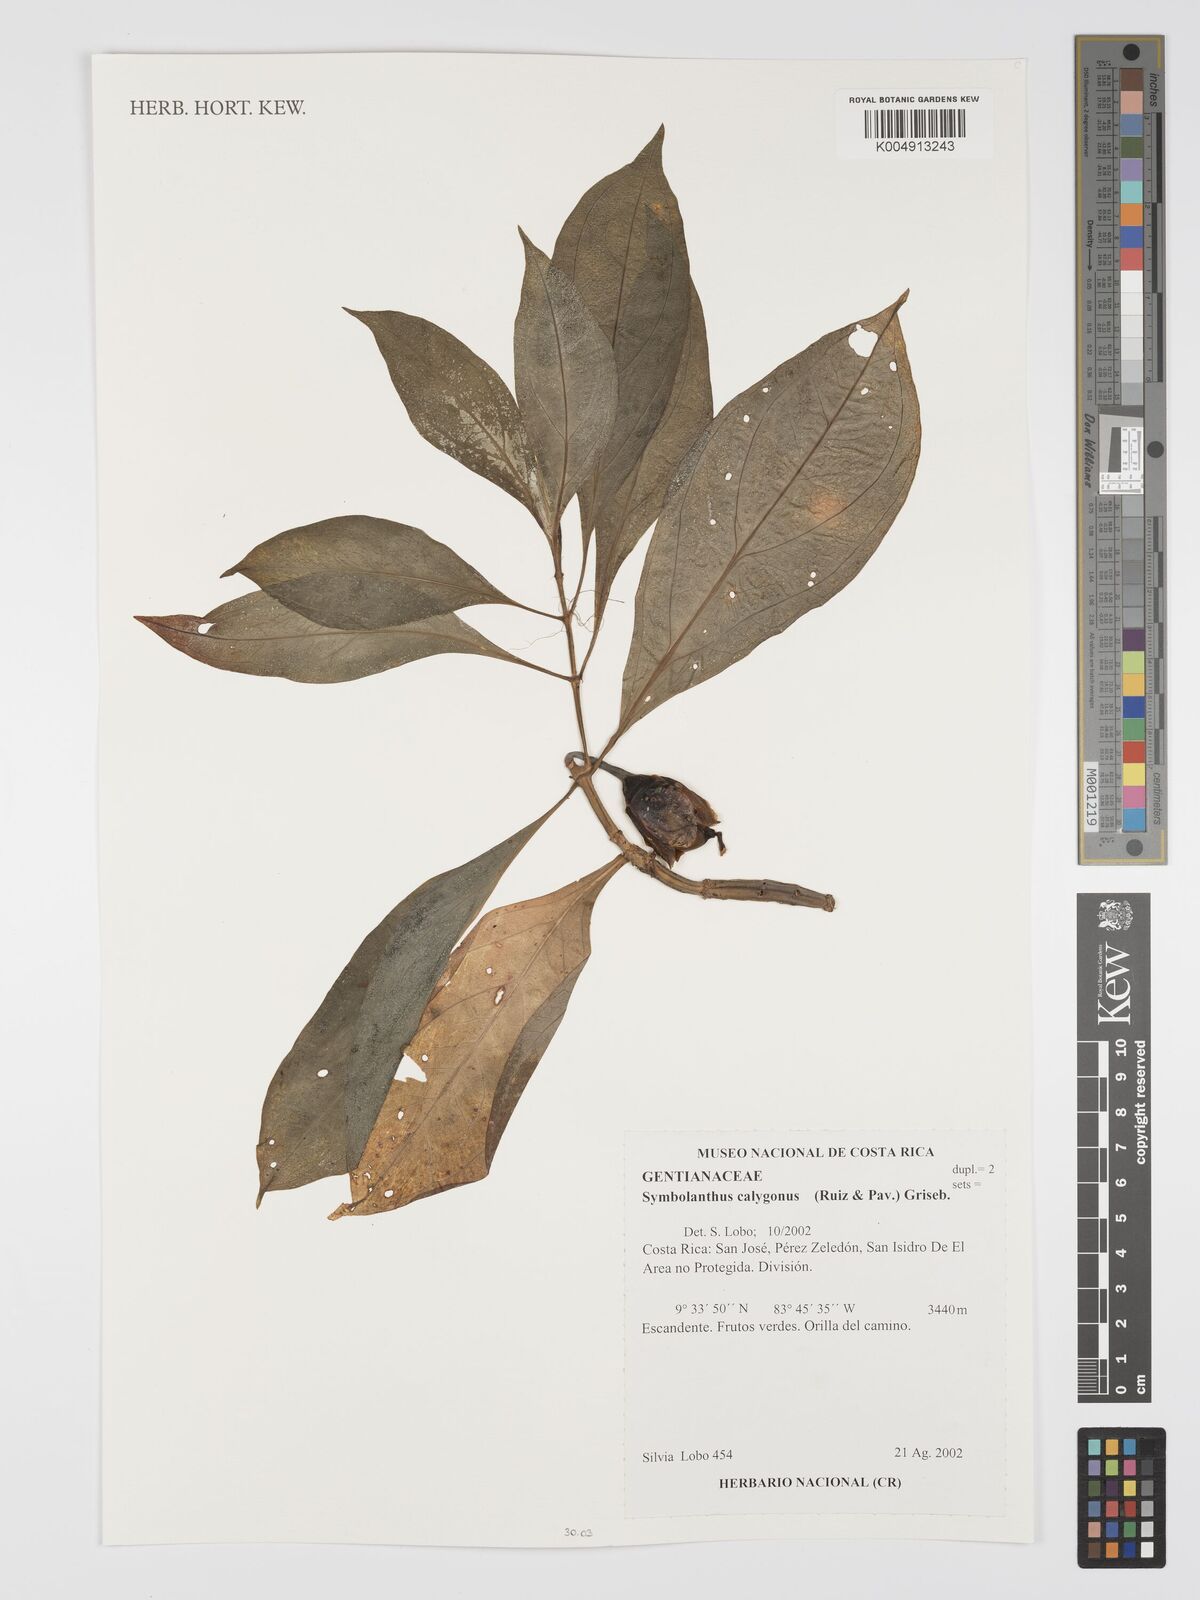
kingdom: Plantae
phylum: Tracheophyta
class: Magnoliopsida
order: Gentianales
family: Gentianaceae
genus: Symbolanthus
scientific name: Symbolanthus calygonus
